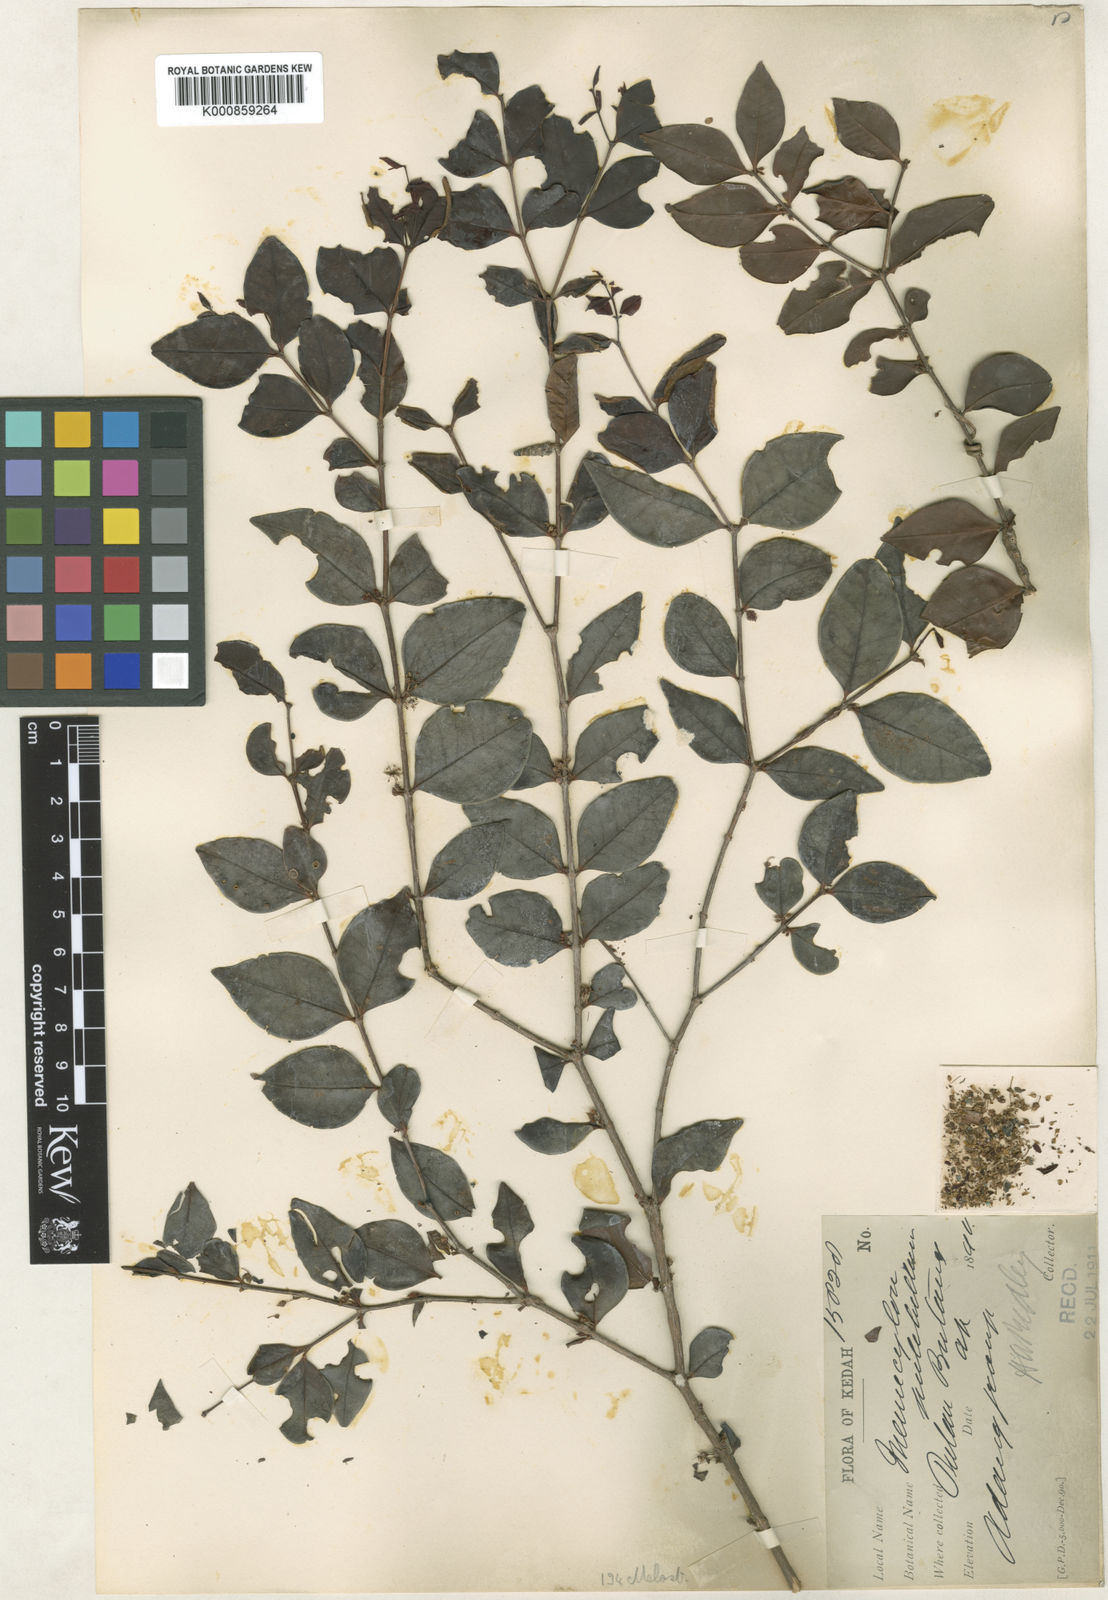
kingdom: Plantae
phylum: Tracheophyta
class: Magnoliopsida
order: Myrtales
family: Melastomataceae
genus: Memecylon
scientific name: Memecylon pauciflorum
